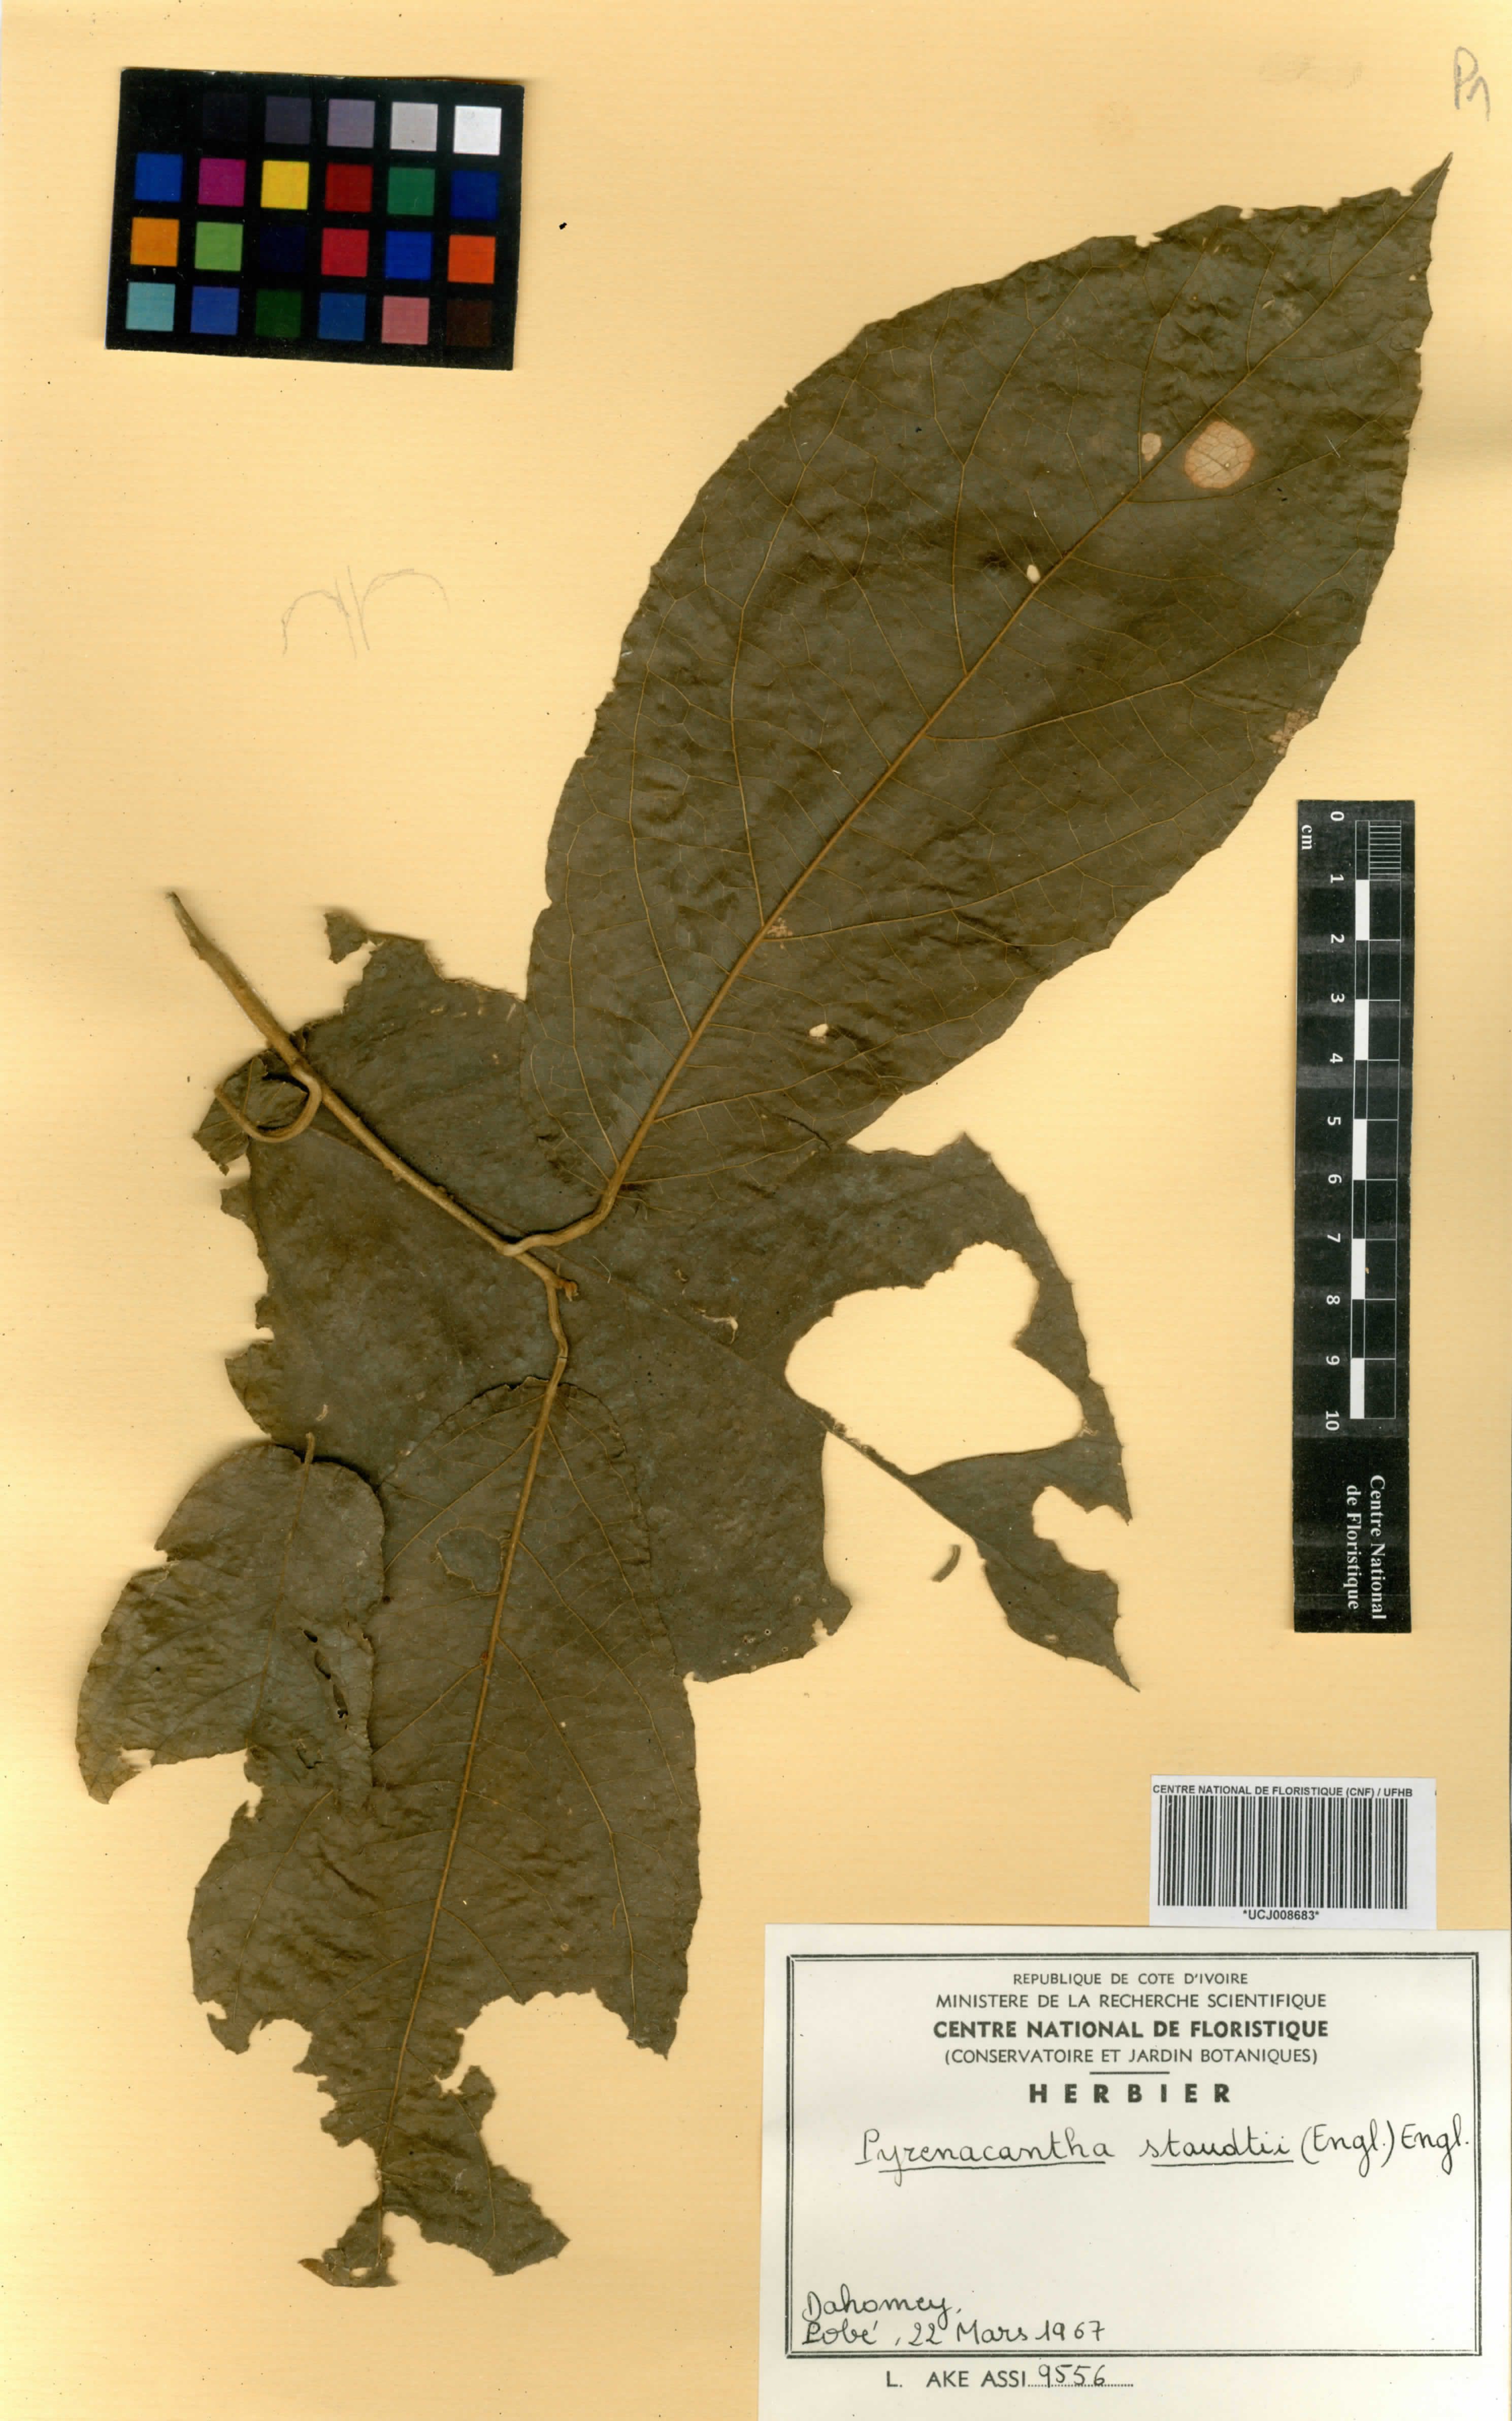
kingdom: Plantae
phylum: Tracheophyta
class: Magnoliopsida
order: Icacinales
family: Icacinaceae
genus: Pyrenacantha
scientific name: Pyrenacantha staudtii
